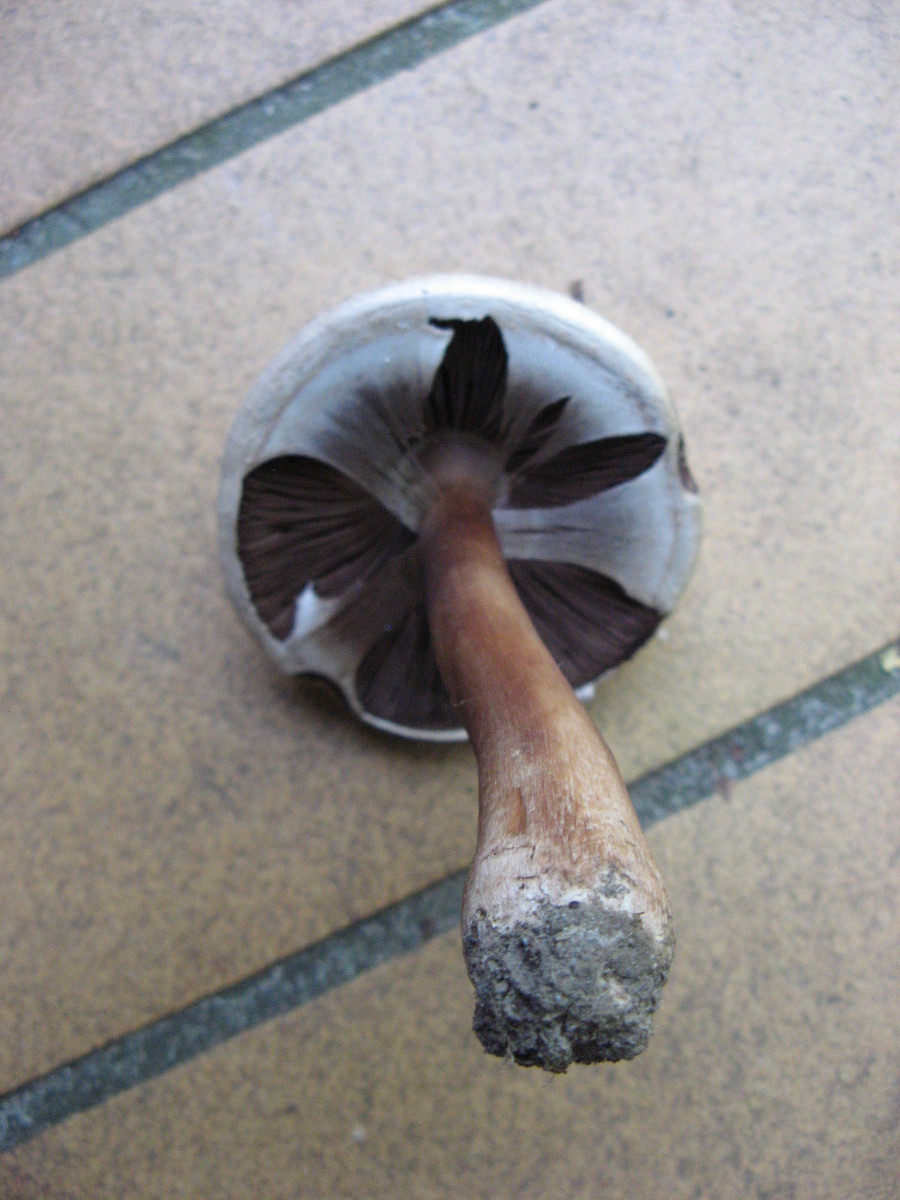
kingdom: Fungi
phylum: Basidiomycota
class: Agaricomycetes
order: Agaricales
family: Agaricaceae
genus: Agaricus
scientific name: Agaricus
